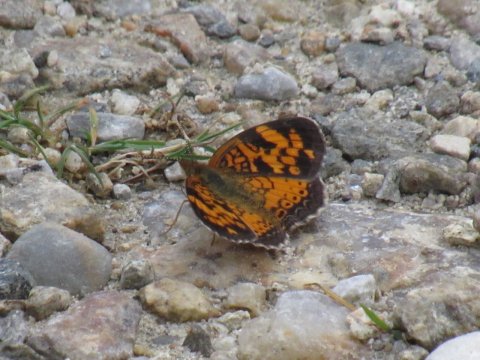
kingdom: Animalia
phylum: Arthropoda
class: Insecta
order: Lepidoptera
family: Nymphalidae
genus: Phyciodes
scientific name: Phyciodes
